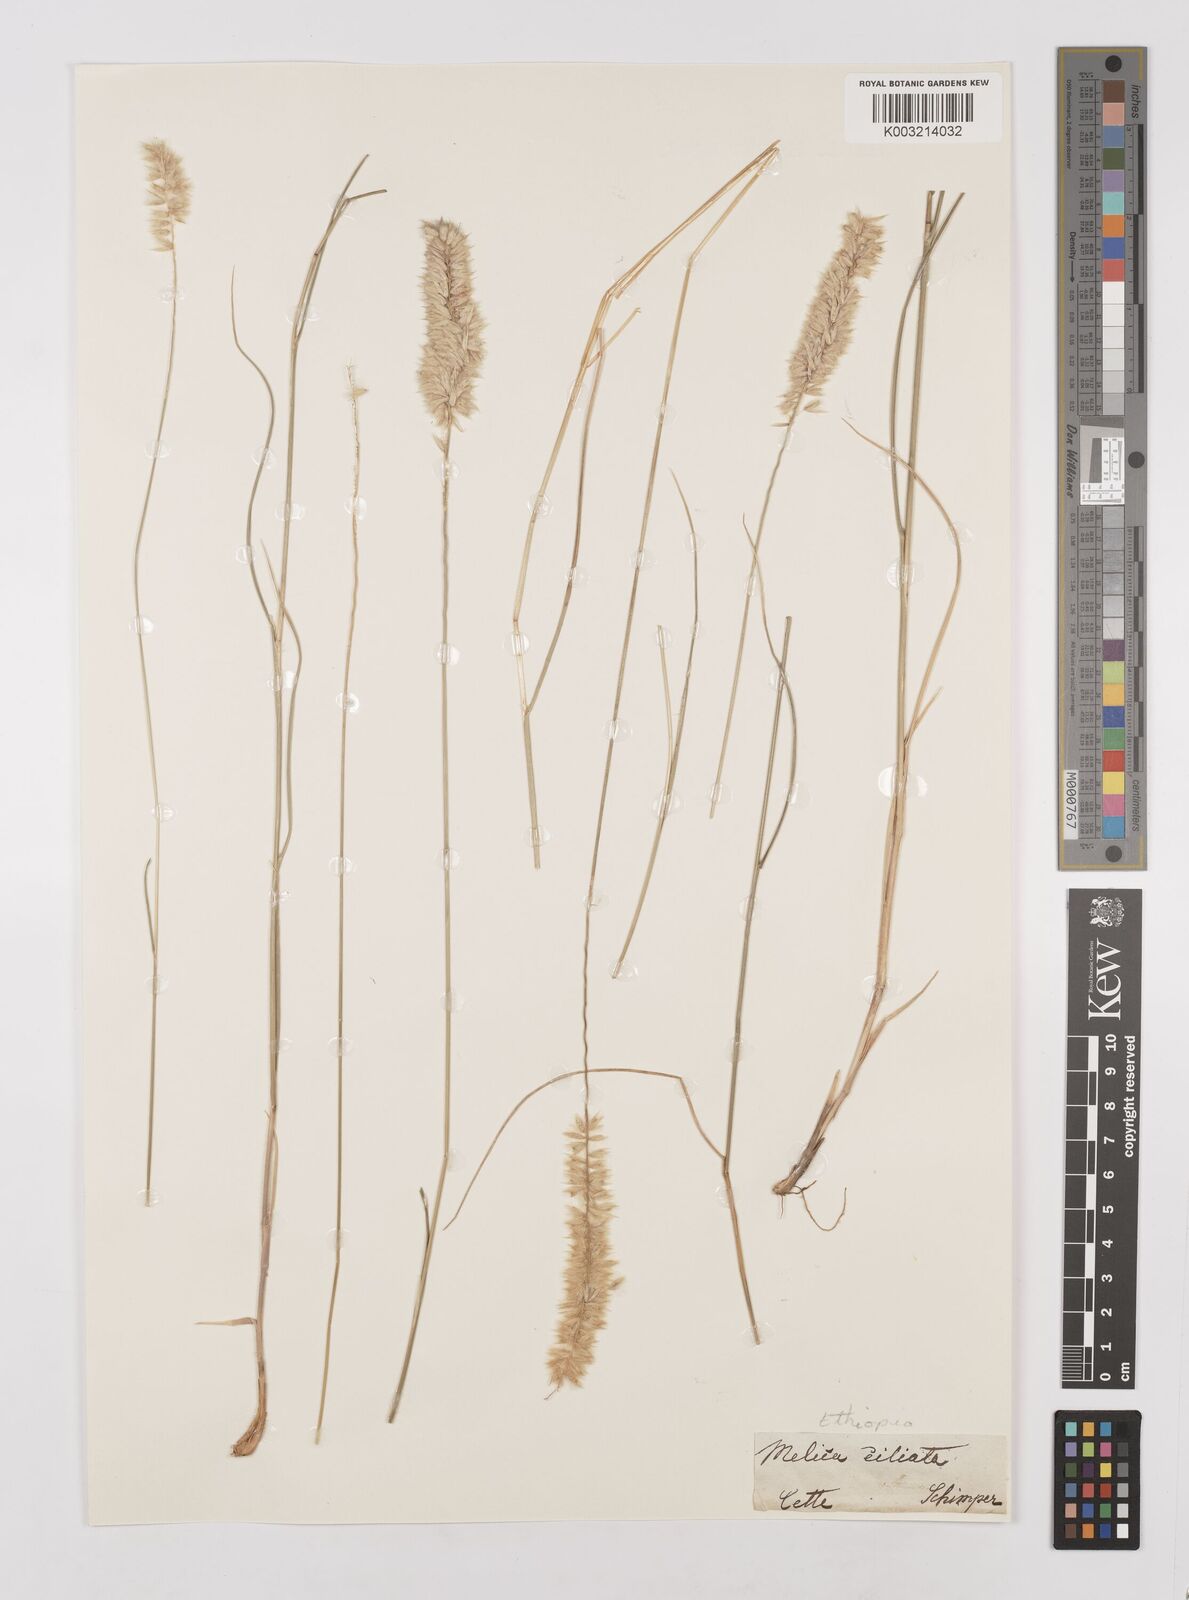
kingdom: Plantae
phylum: Tracheophyta
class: Liliopsida
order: Poales
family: Poaceae
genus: Melica
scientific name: Melica ciliata
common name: Hairy melicgrass
